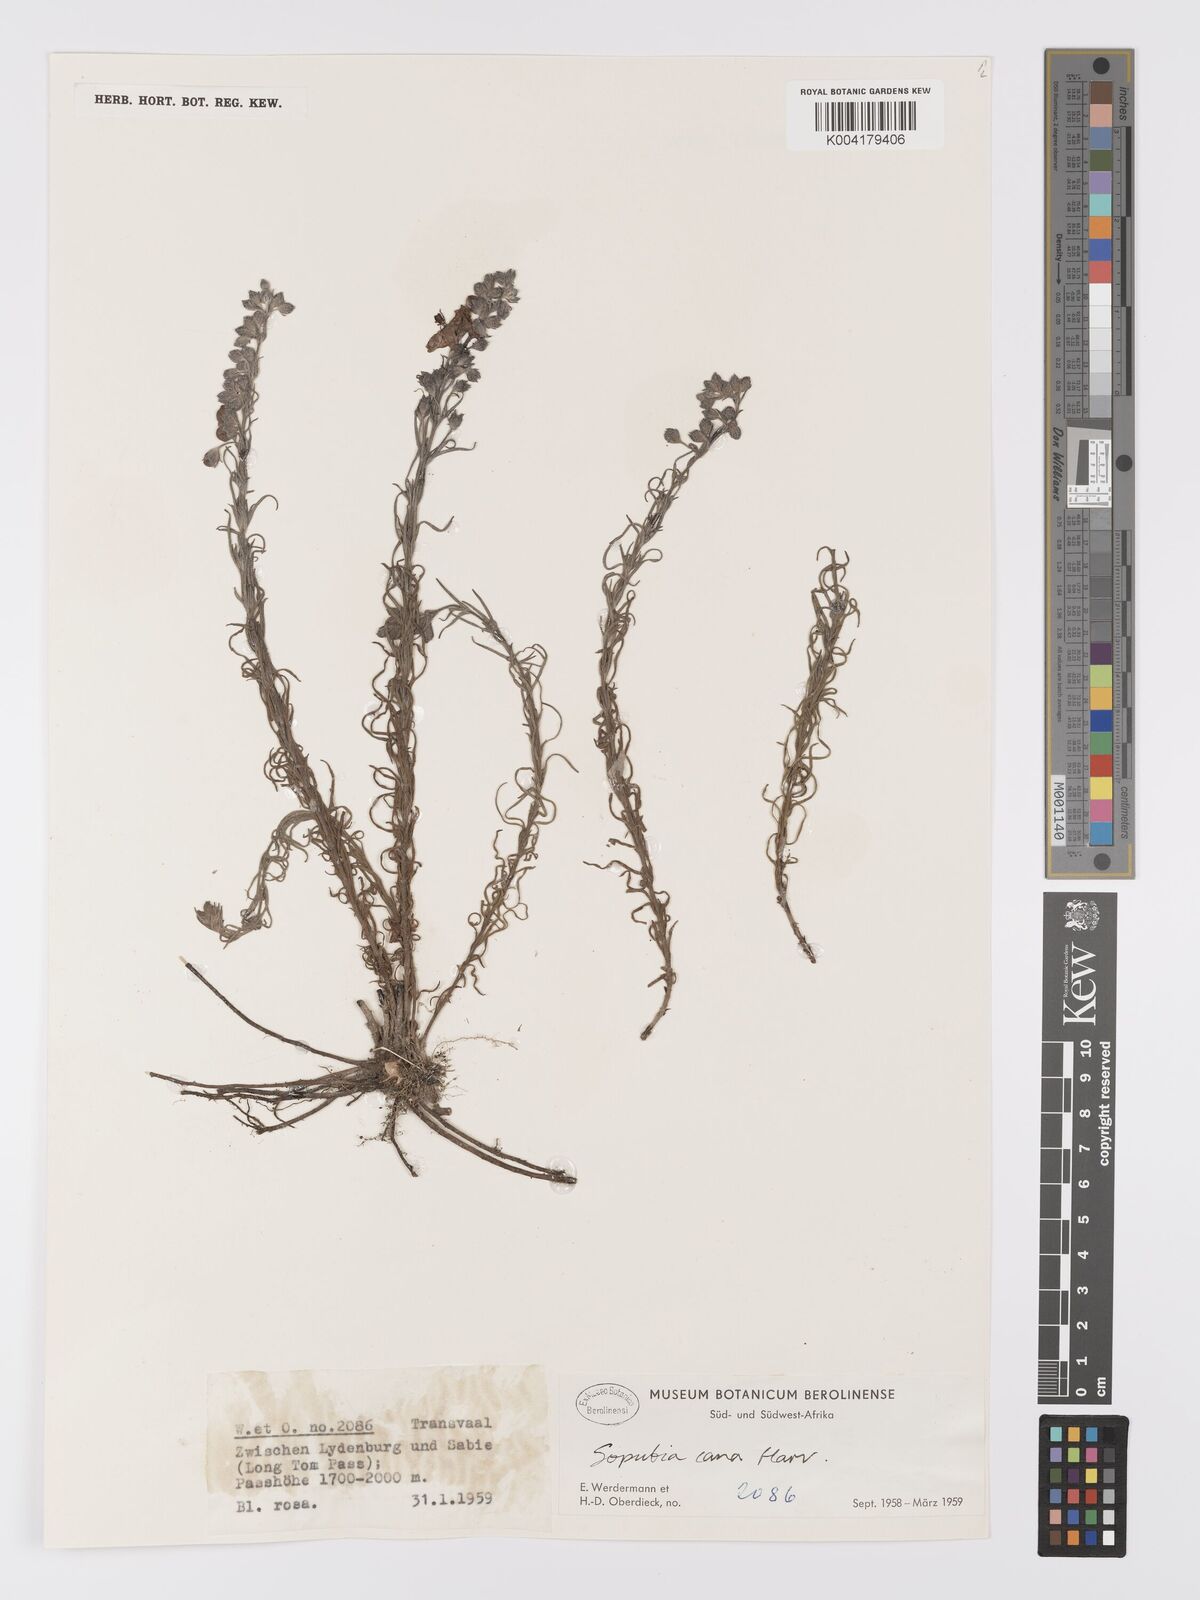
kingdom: Plantae
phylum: Tracheophyta
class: Magnoliopsida
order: Lamiales
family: Orobanchaceae
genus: Sopubia
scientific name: Sopubia cana
